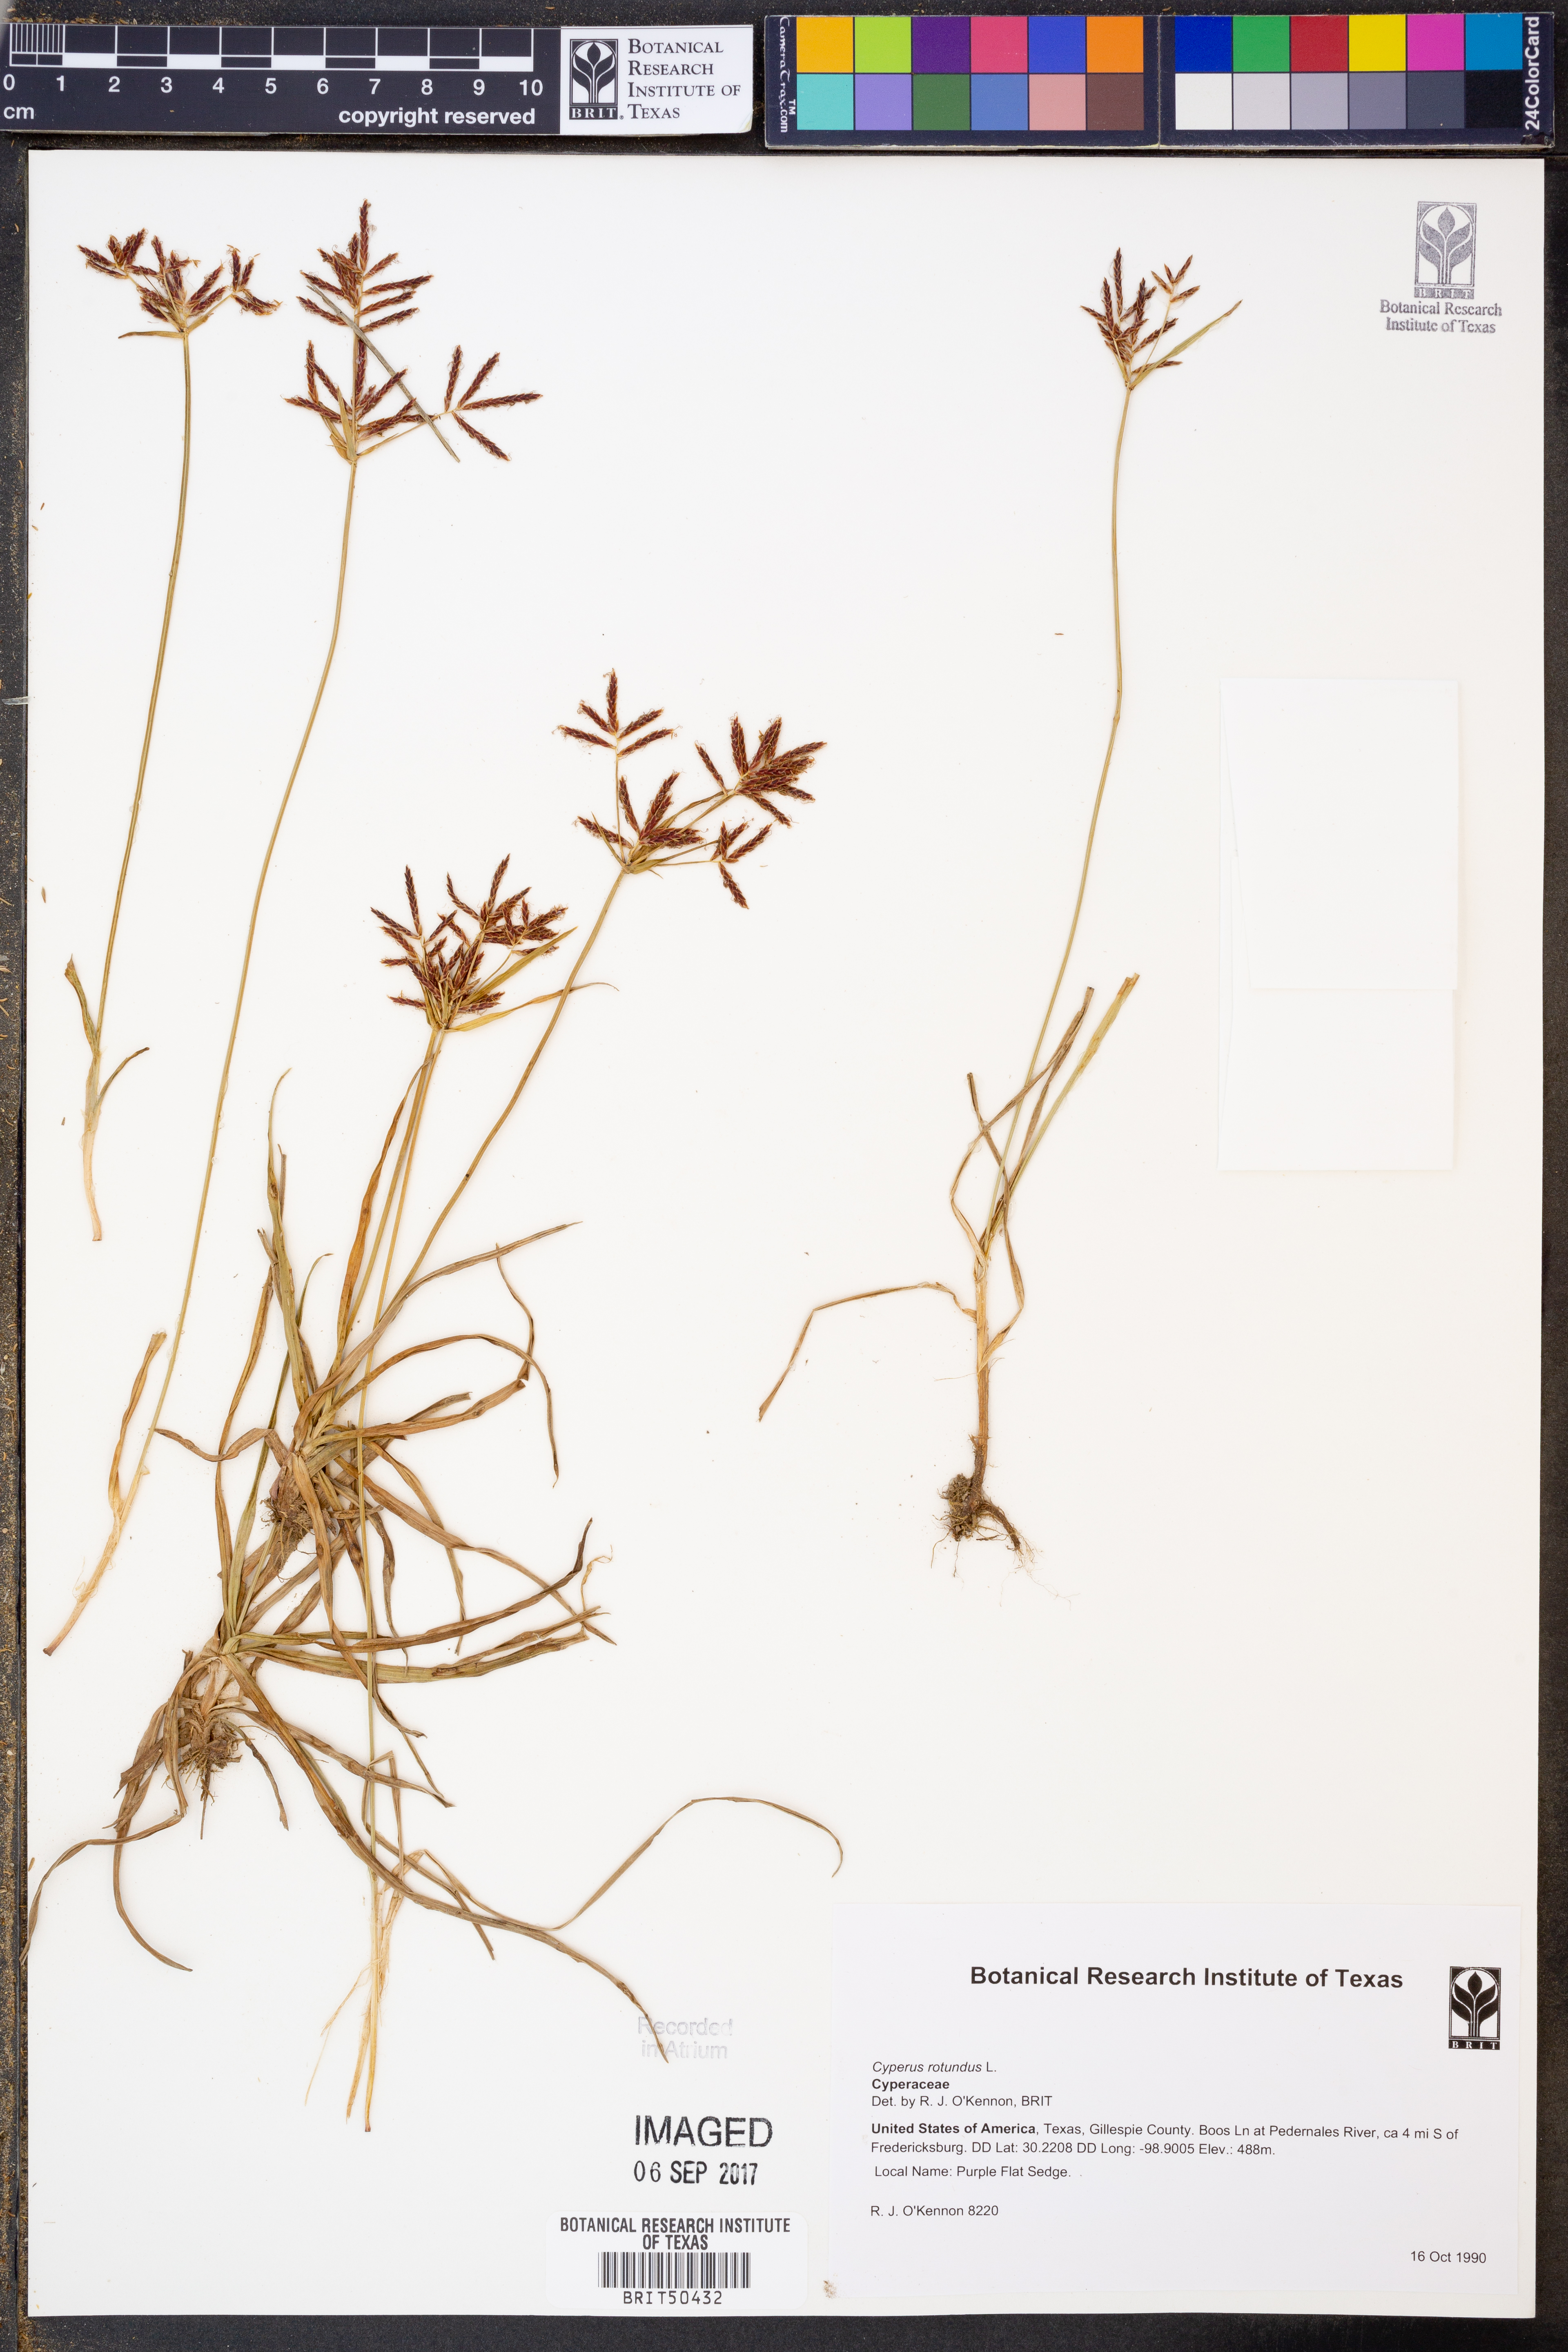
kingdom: Plantae
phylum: Tracheophyta
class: Liliopsida
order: Poales
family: Cyperaceae
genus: Cyperus
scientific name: Cyperus rotundus
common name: Nutgrass
